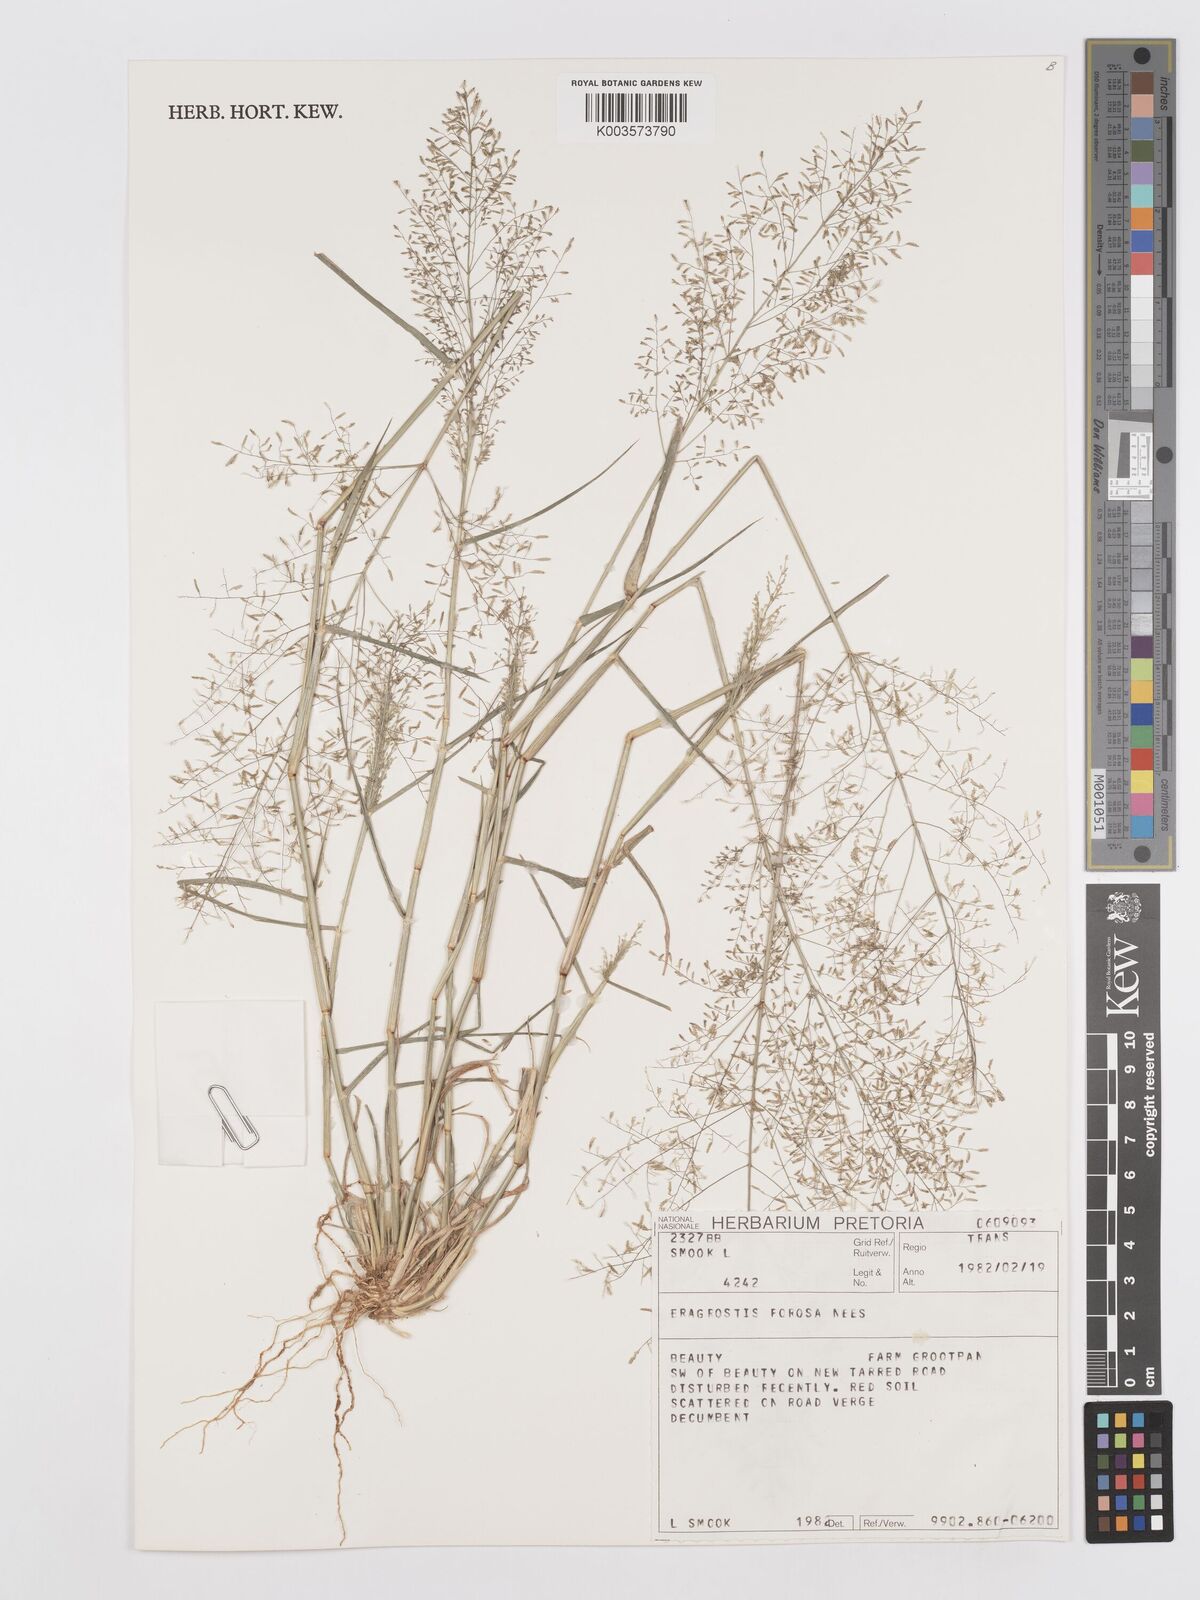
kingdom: Plantae
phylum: Tracheophyta
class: Liliopsida
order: Poales
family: Poaceae
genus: Eragrostis
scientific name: Eragrostis porosa
